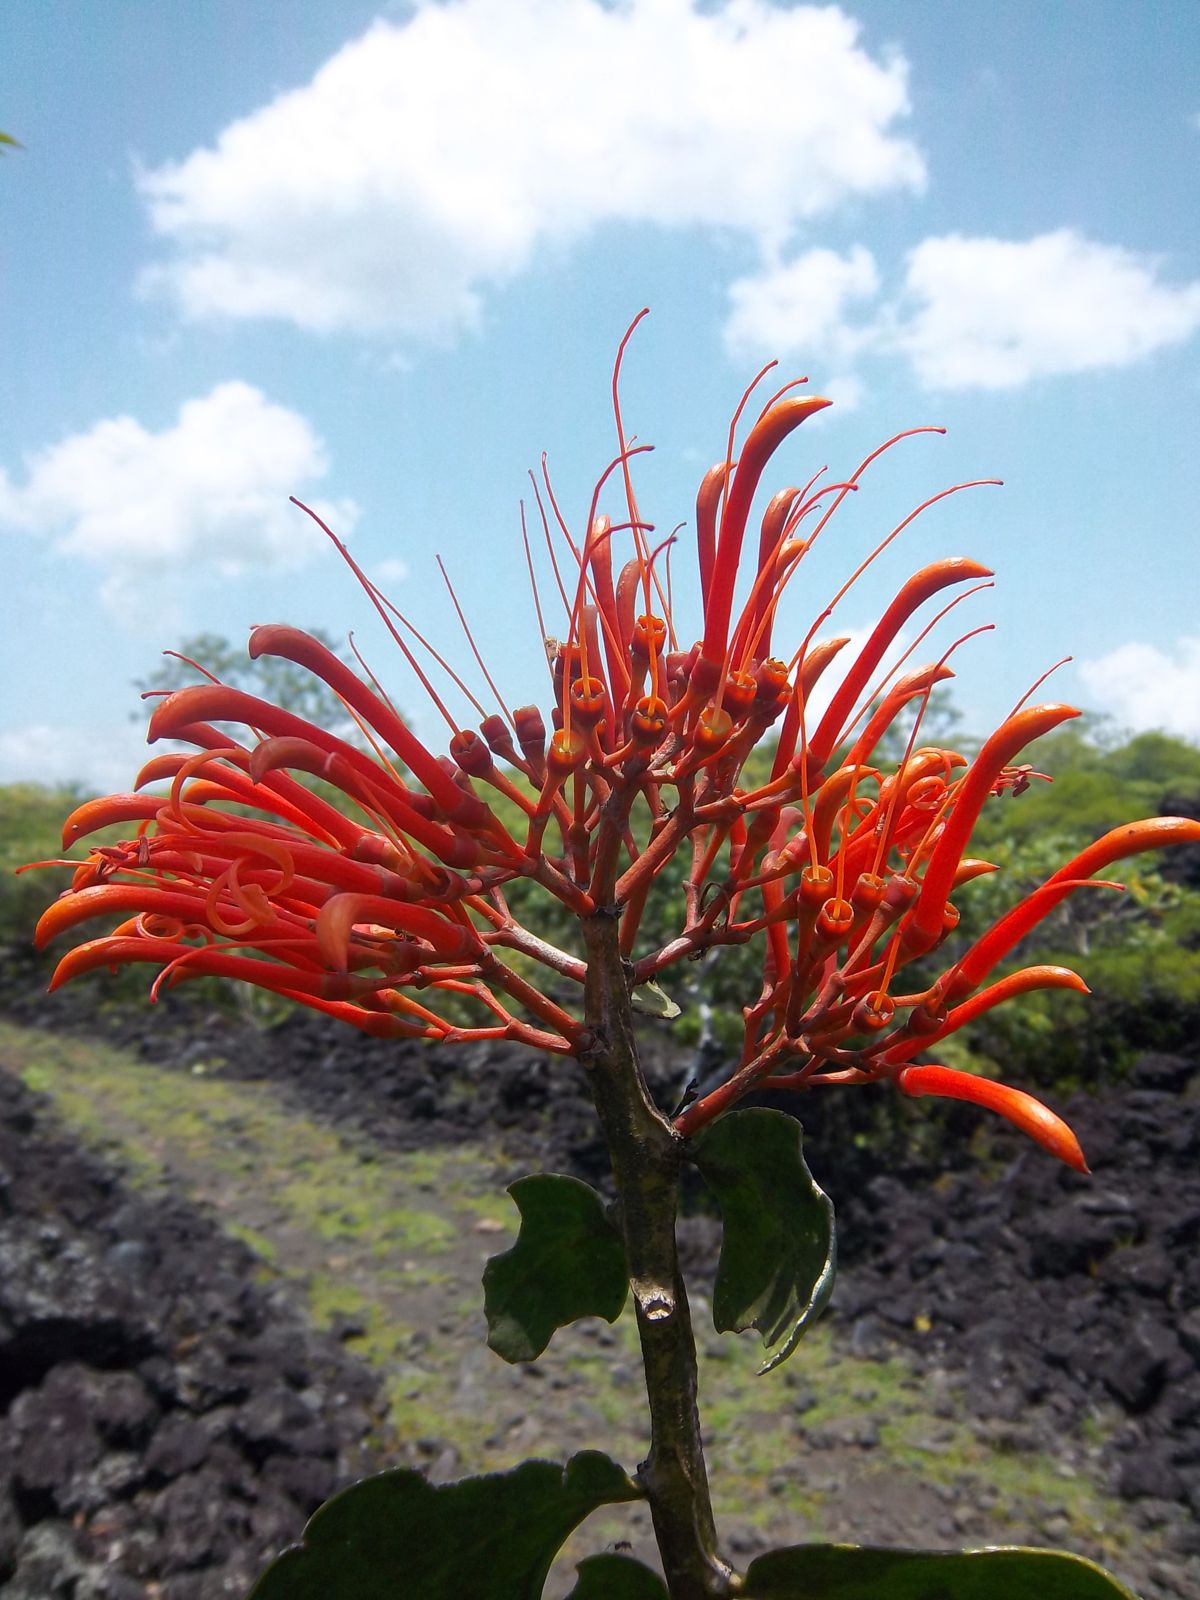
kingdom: Plantae
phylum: Tracheophyta
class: Magnoliopsida
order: Santalales
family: Loranthaceae
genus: Psittacanthus
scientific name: Psittacanthus rhynchanthus
